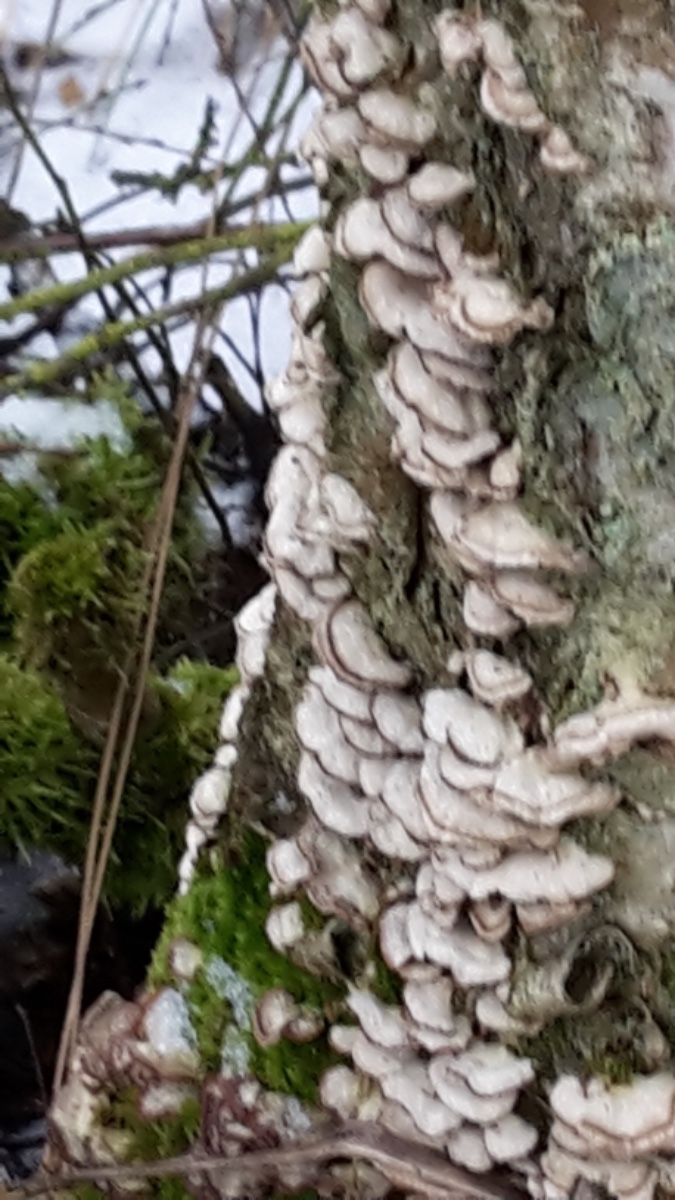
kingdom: Fungi
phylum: Basidiomycota
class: Agaricomycetes
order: Agaricales
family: Cyphellaceae
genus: Chondrostereum
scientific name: Chondrostereum purpureum
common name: purpurlædersvamp
